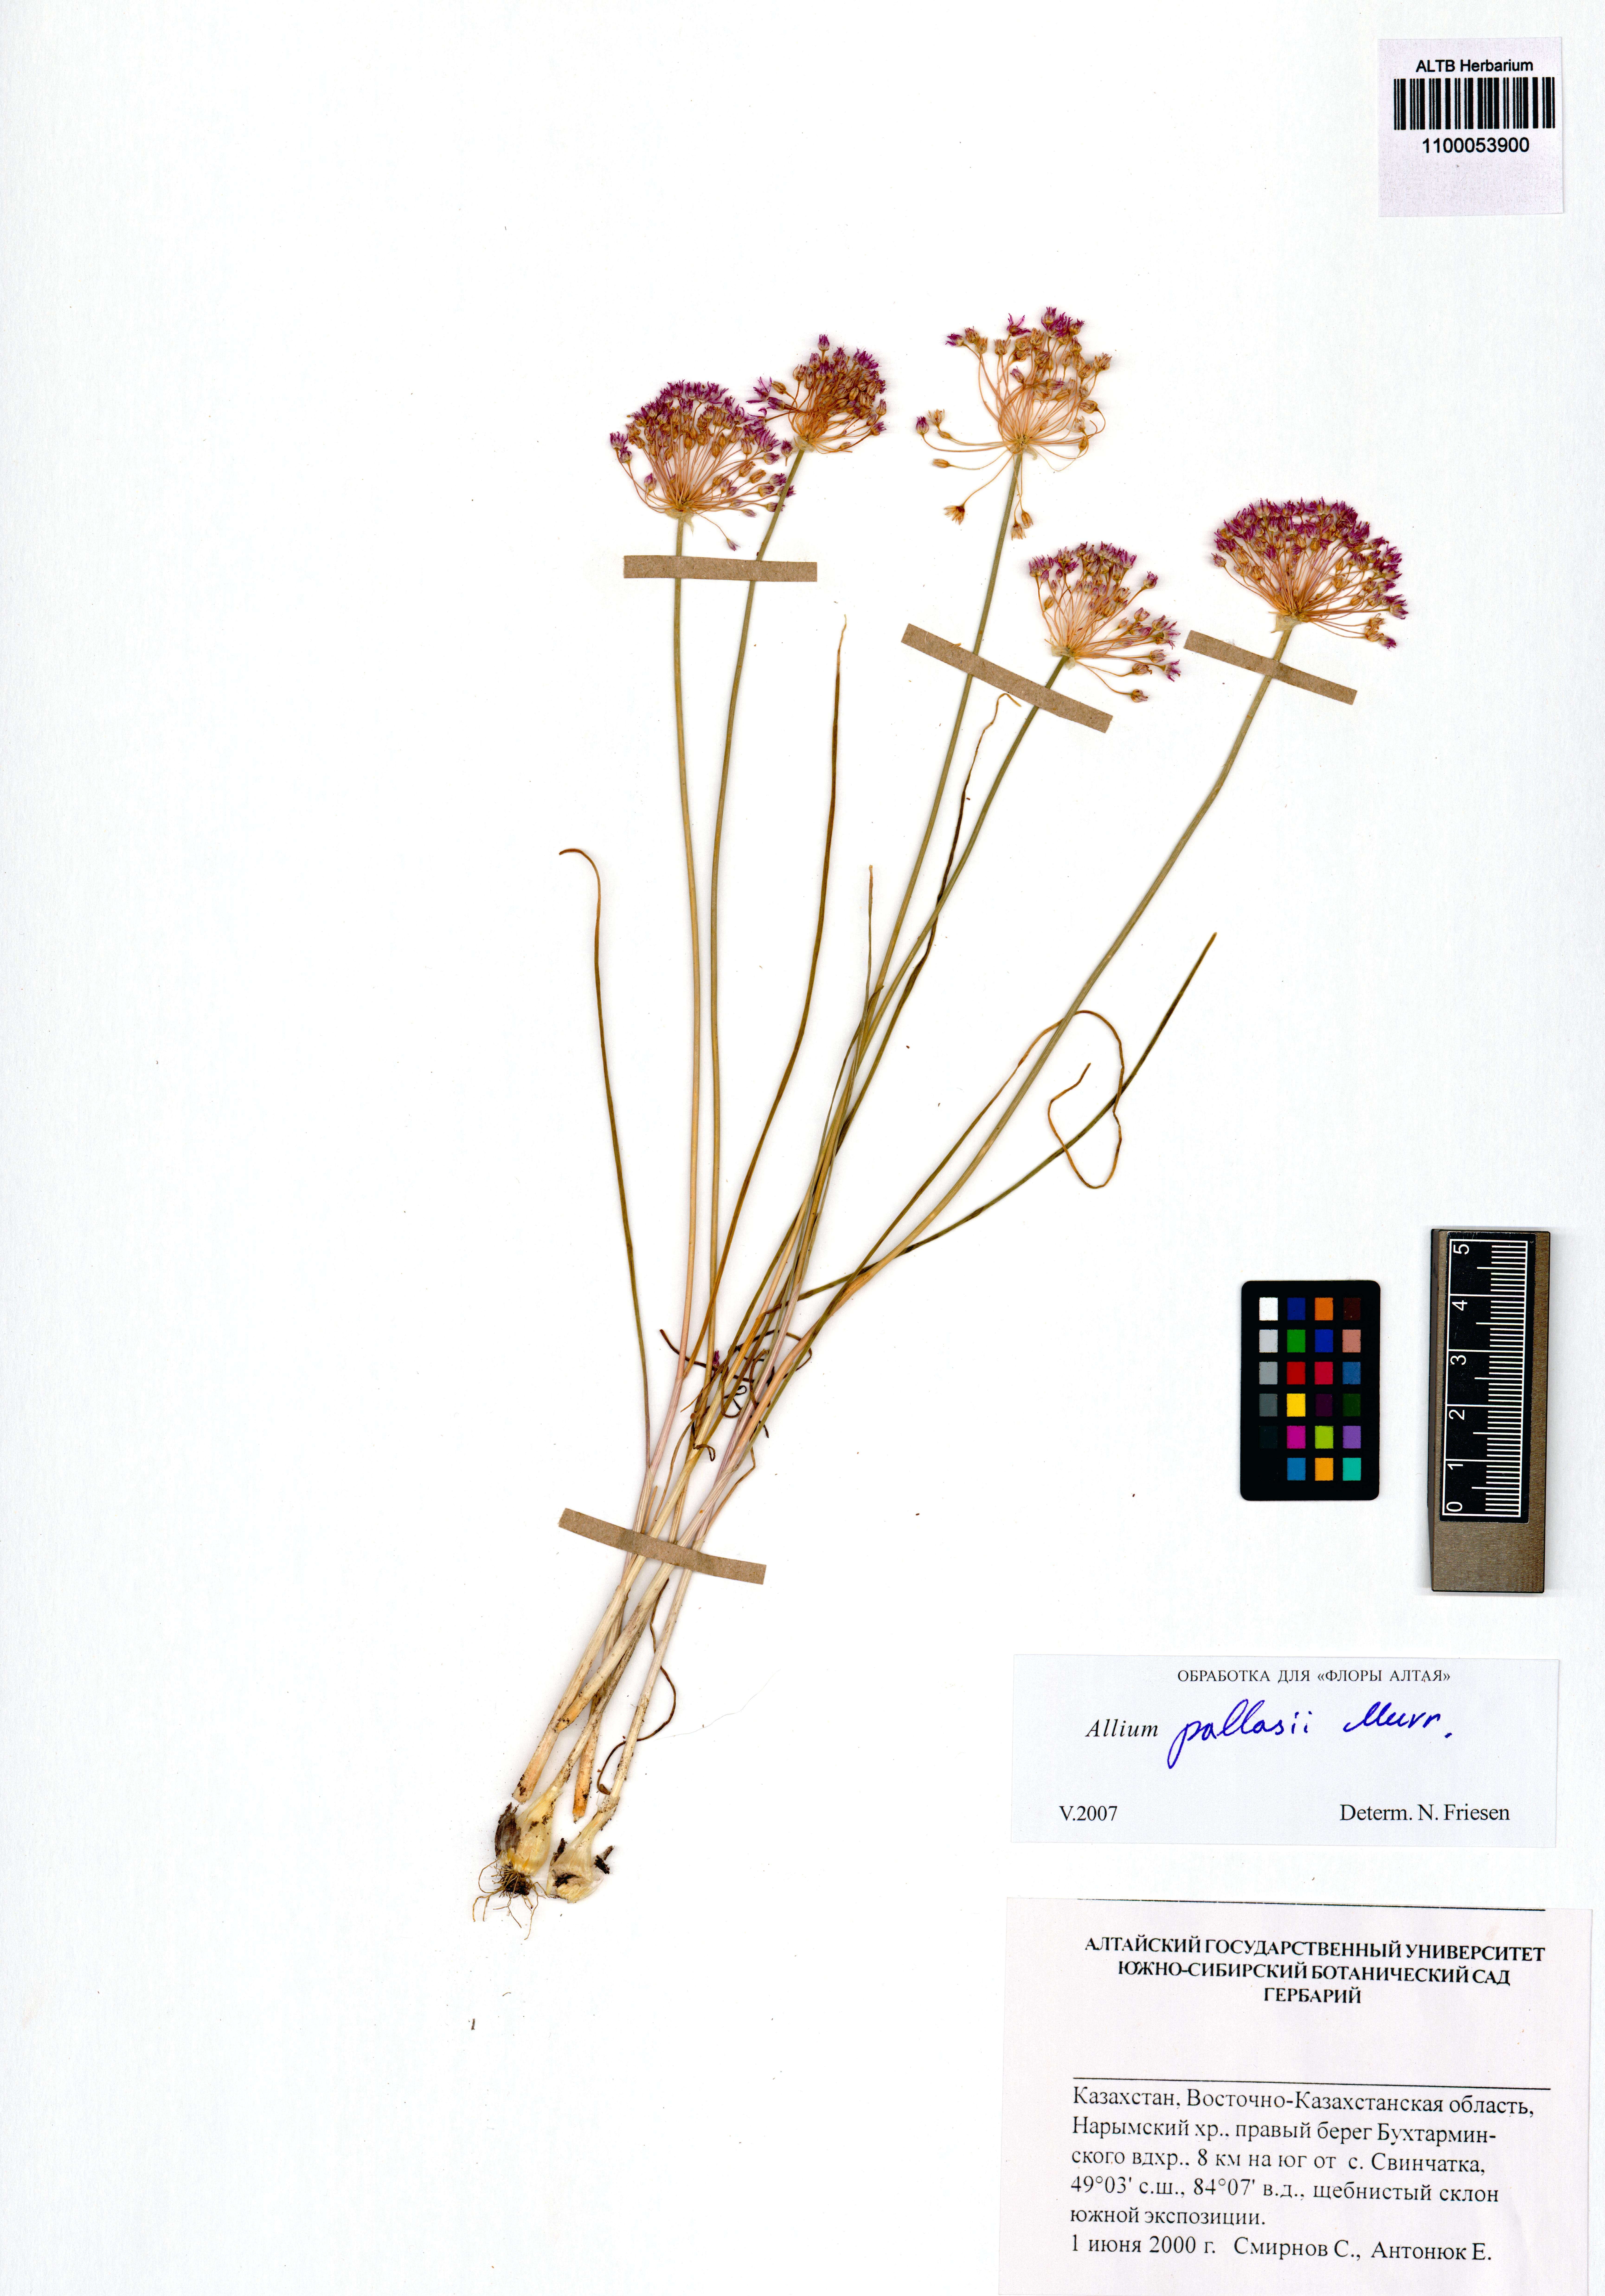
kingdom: Plantae
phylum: Tracheophyta
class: Liliopsida
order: Asparagales
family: Amaryllidaceae
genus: Allium
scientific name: Allium pallasii
